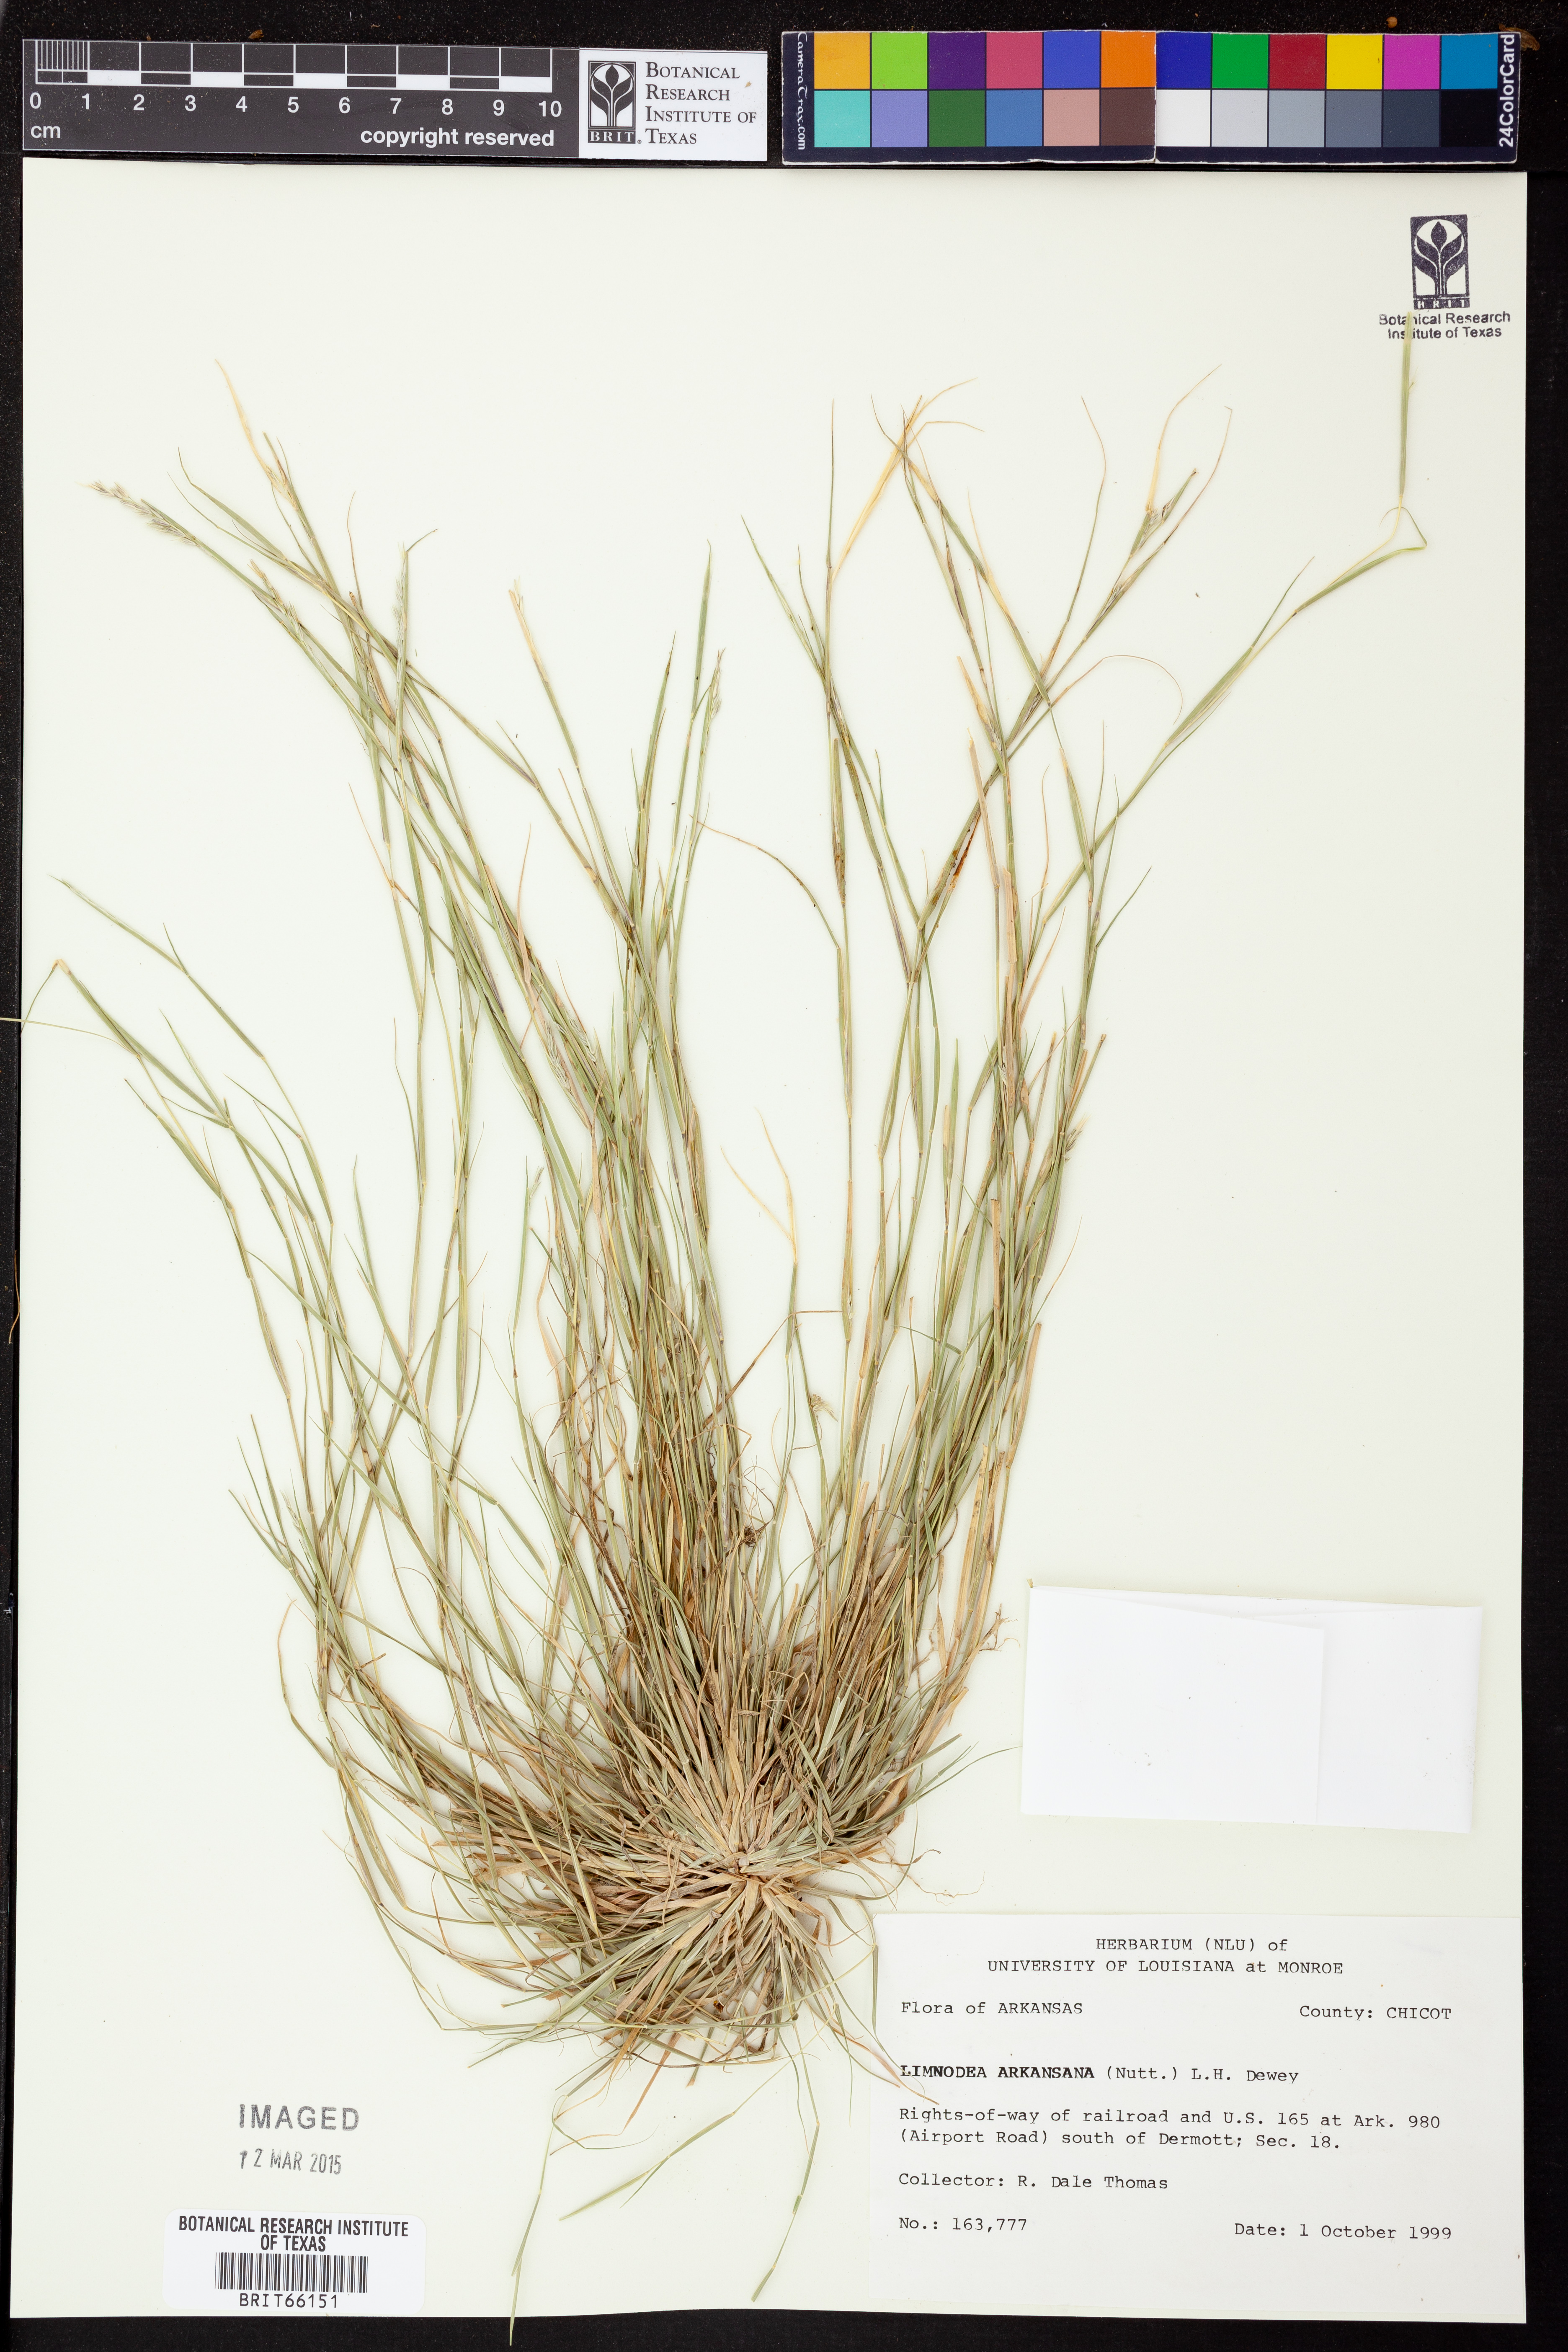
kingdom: Plantae
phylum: Tracheophyta
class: Liliopsida
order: Poales
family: Poaceae
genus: Limnodea
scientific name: Limnodea arkansana
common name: Ozark-grass
